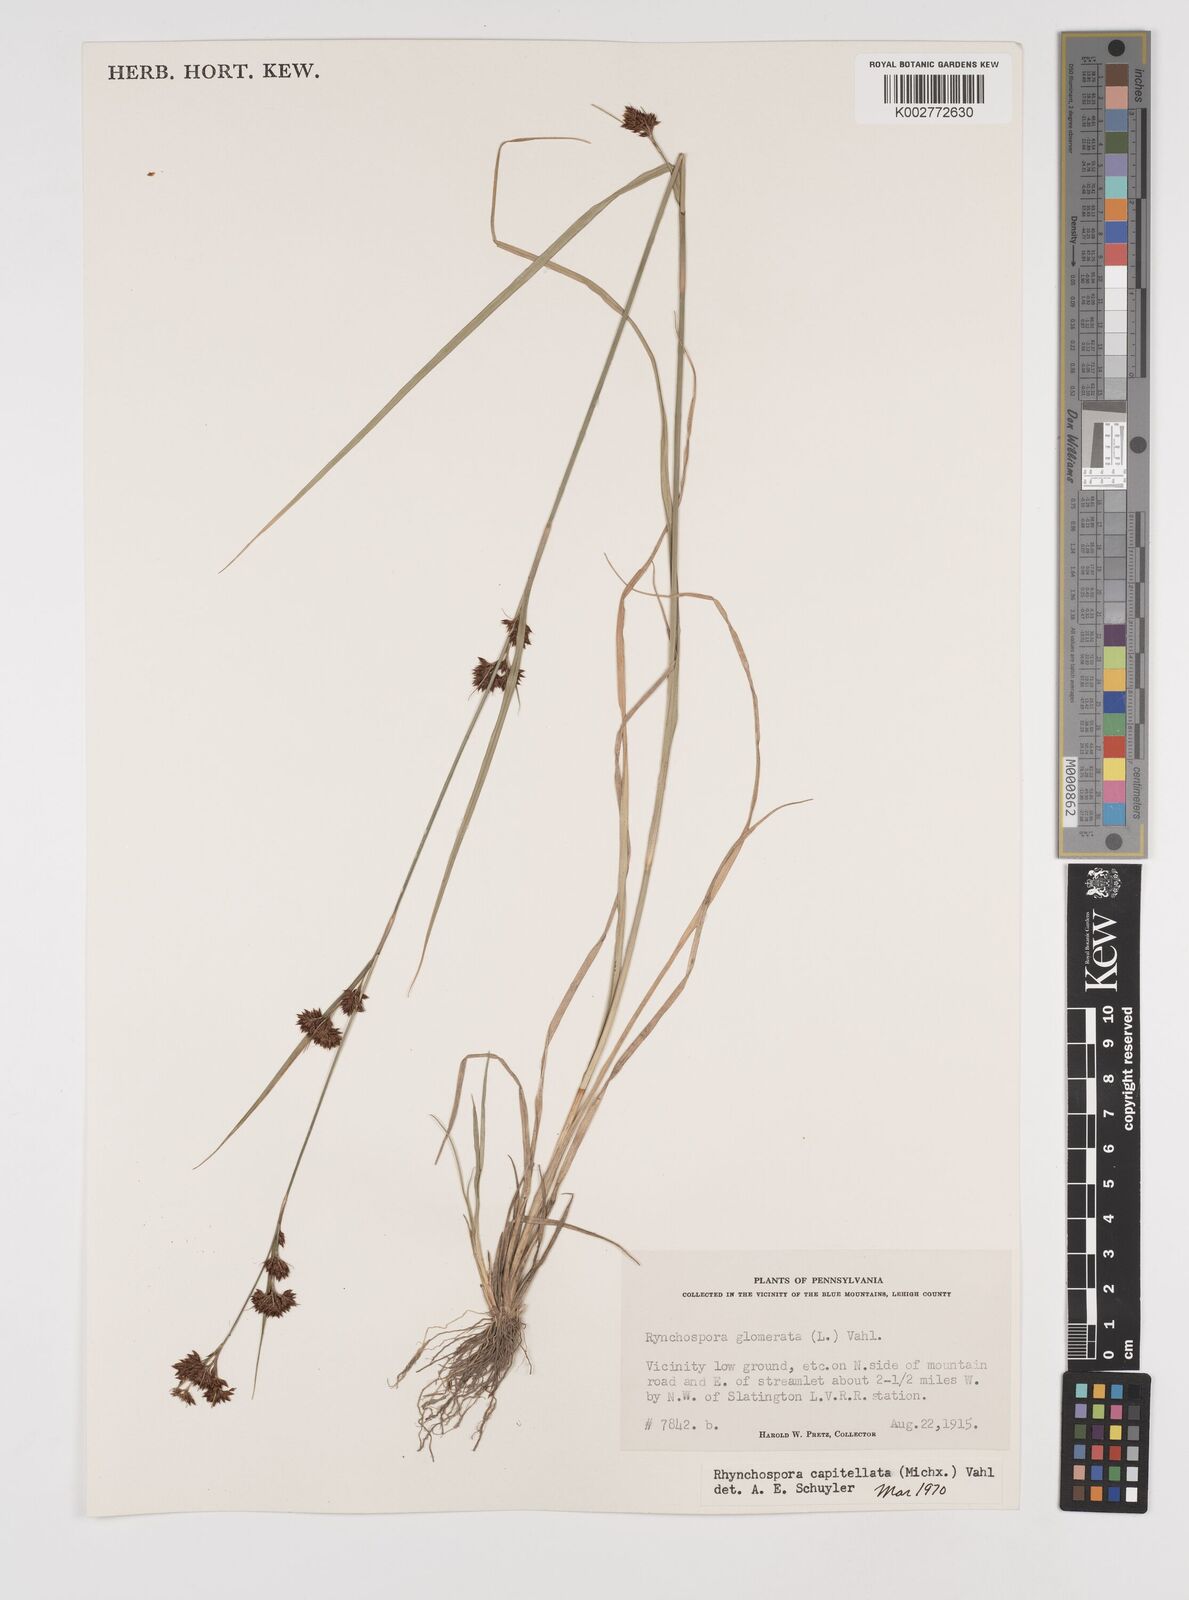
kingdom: Plantae
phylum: Tracheophyta
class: Liliopsida
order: Poales
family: Cyperaceae
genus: Rhynchospora
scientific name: Rhynchospora capitellata
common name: Brownish beaksedge
